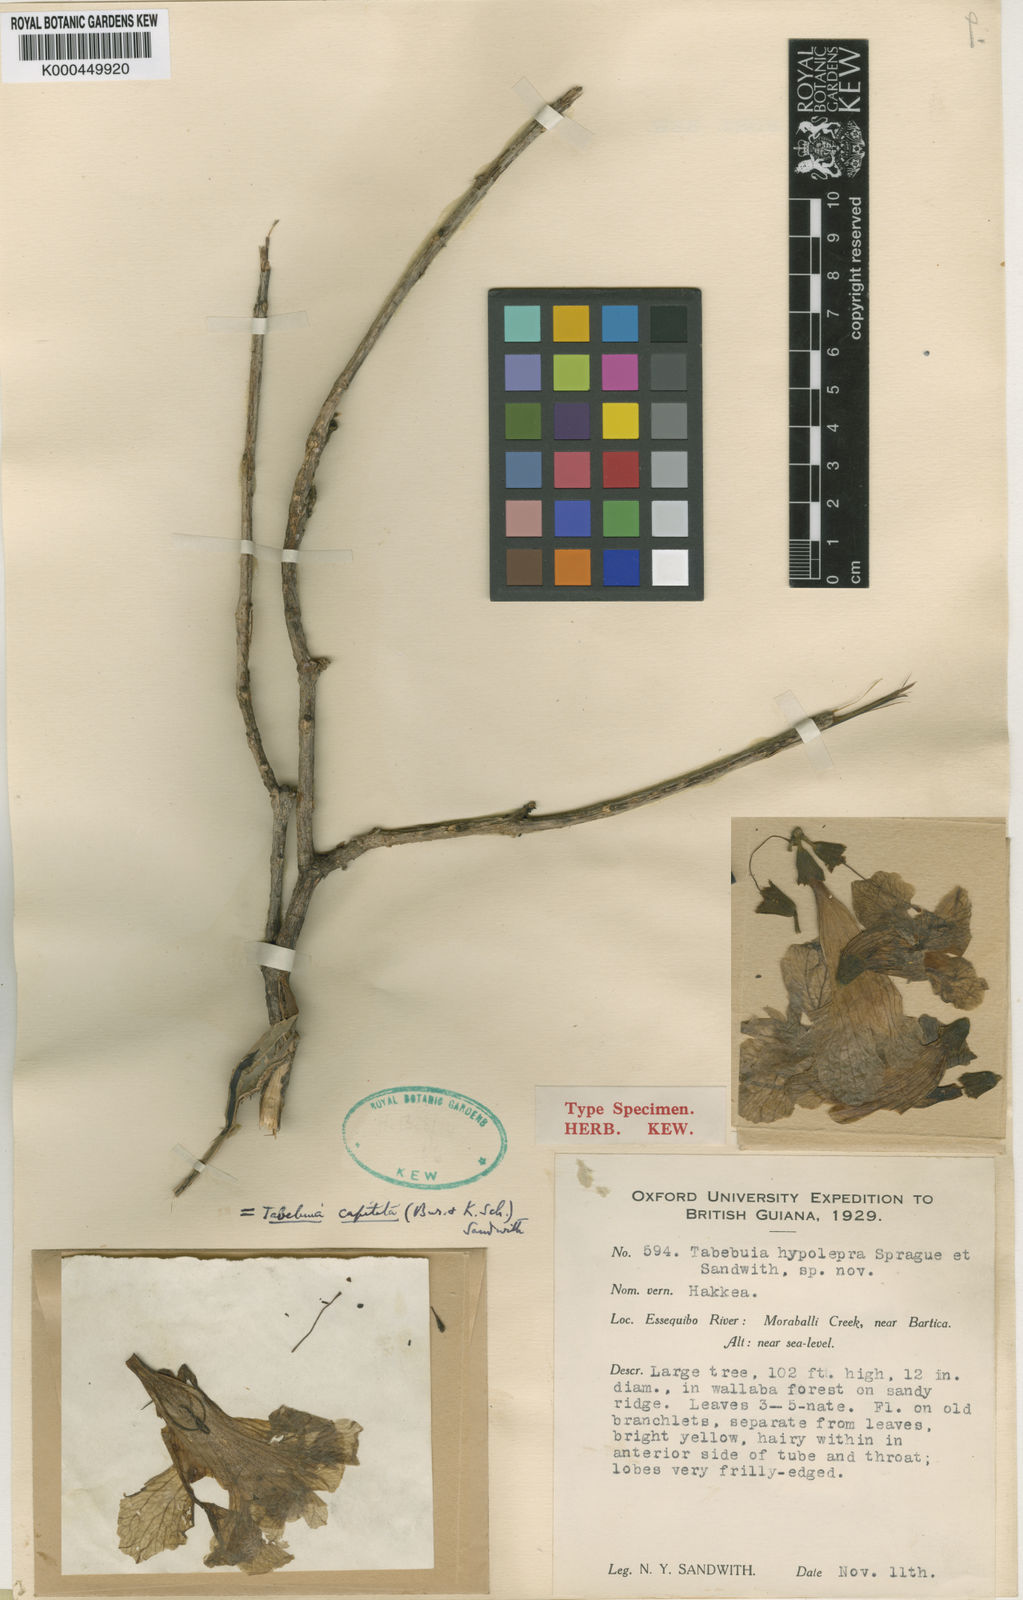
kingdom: Plantae
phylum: Tracheophyta
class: Magnoliopsida
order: Lamiales
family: Bignoniaceae
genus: Handroanthus
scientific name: Handroanthus capitatus
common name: Trumpet trees
